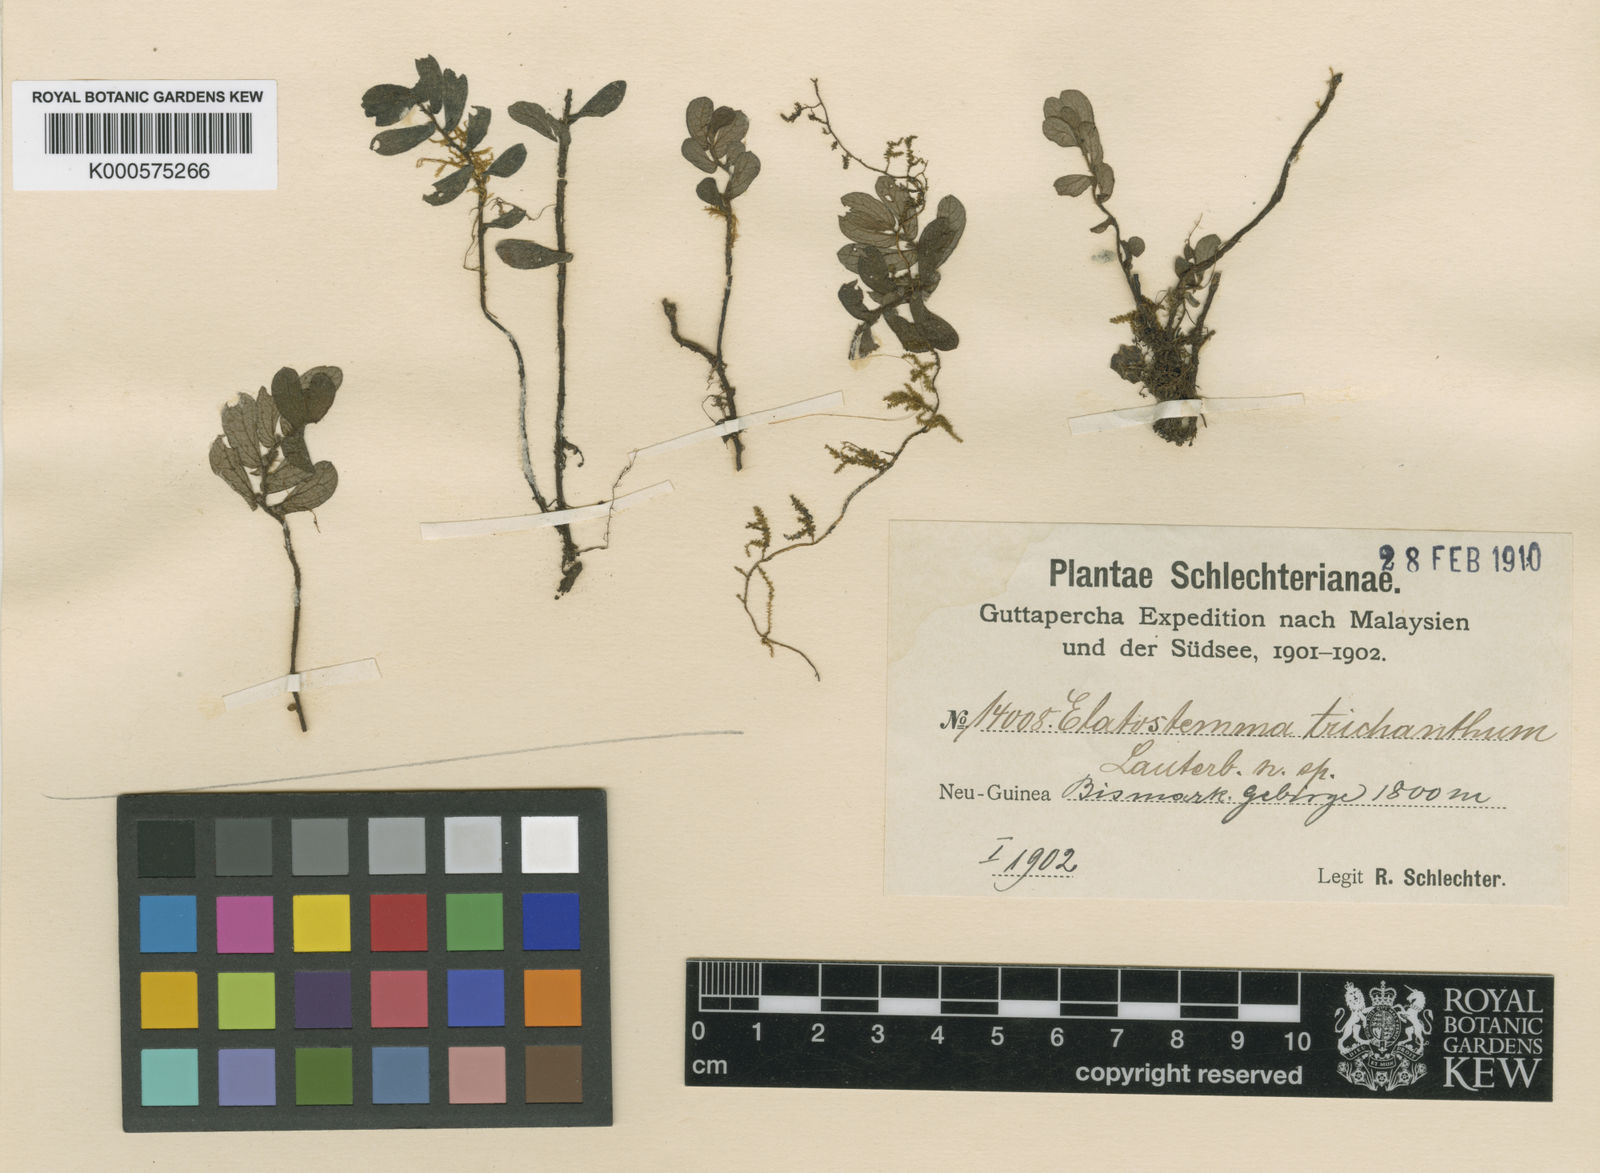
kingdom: Plantae
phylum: Tracheophyta
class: Magnoliopsida
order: Rosales
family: Urticaceae
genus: Elatostema
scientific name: Elatostema trichanthum
